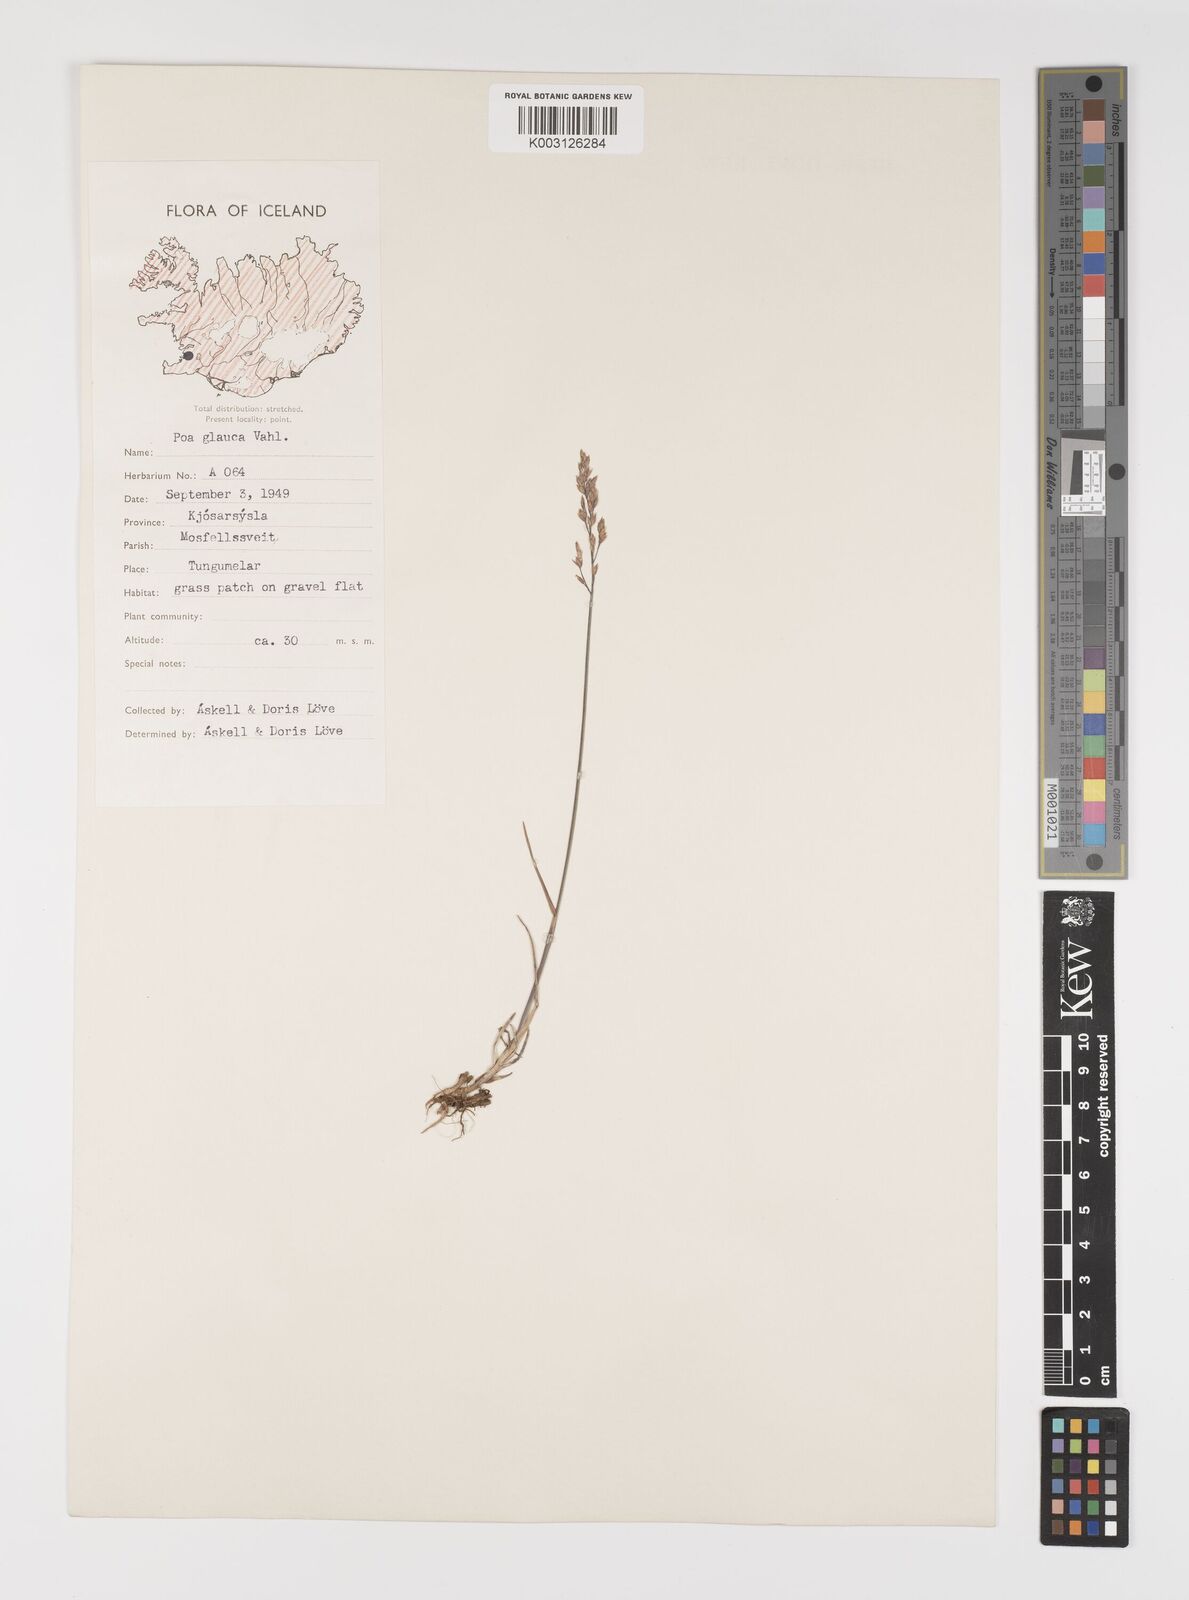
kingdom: Plantae
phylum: Tracheophyta
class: Liliopsida
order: Poales
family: Poaceae
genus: Poa
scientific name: Poa glauca
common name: Glaucous bluegrass
